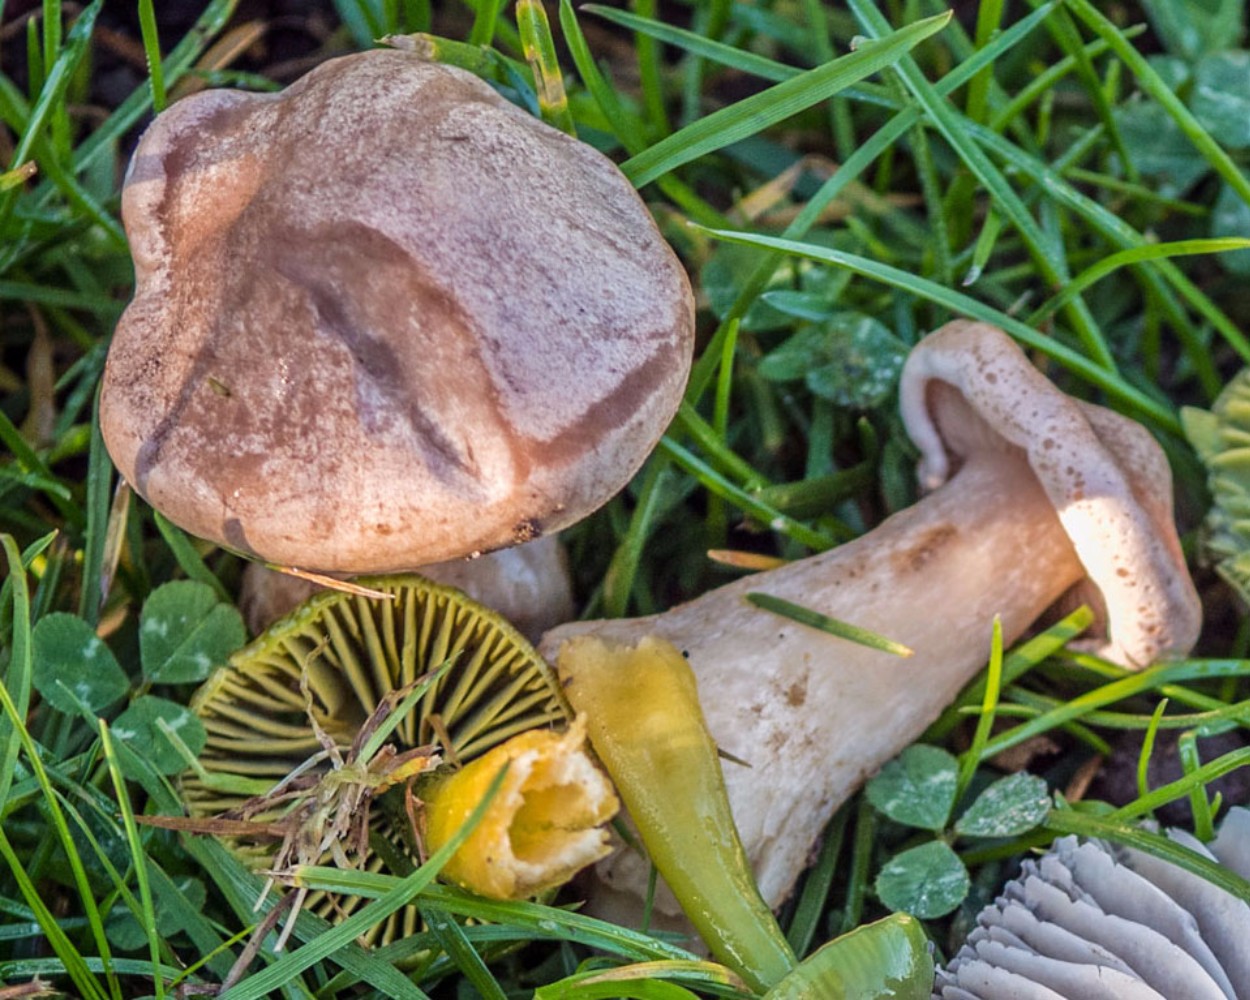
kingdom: Fungi
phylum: Basidiomycota
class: Agaricomycetes
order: Agaricales
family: Tricholomataceae
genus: Lepista
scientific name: Lepista panaeolus
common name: marmoreret hekseringshat
